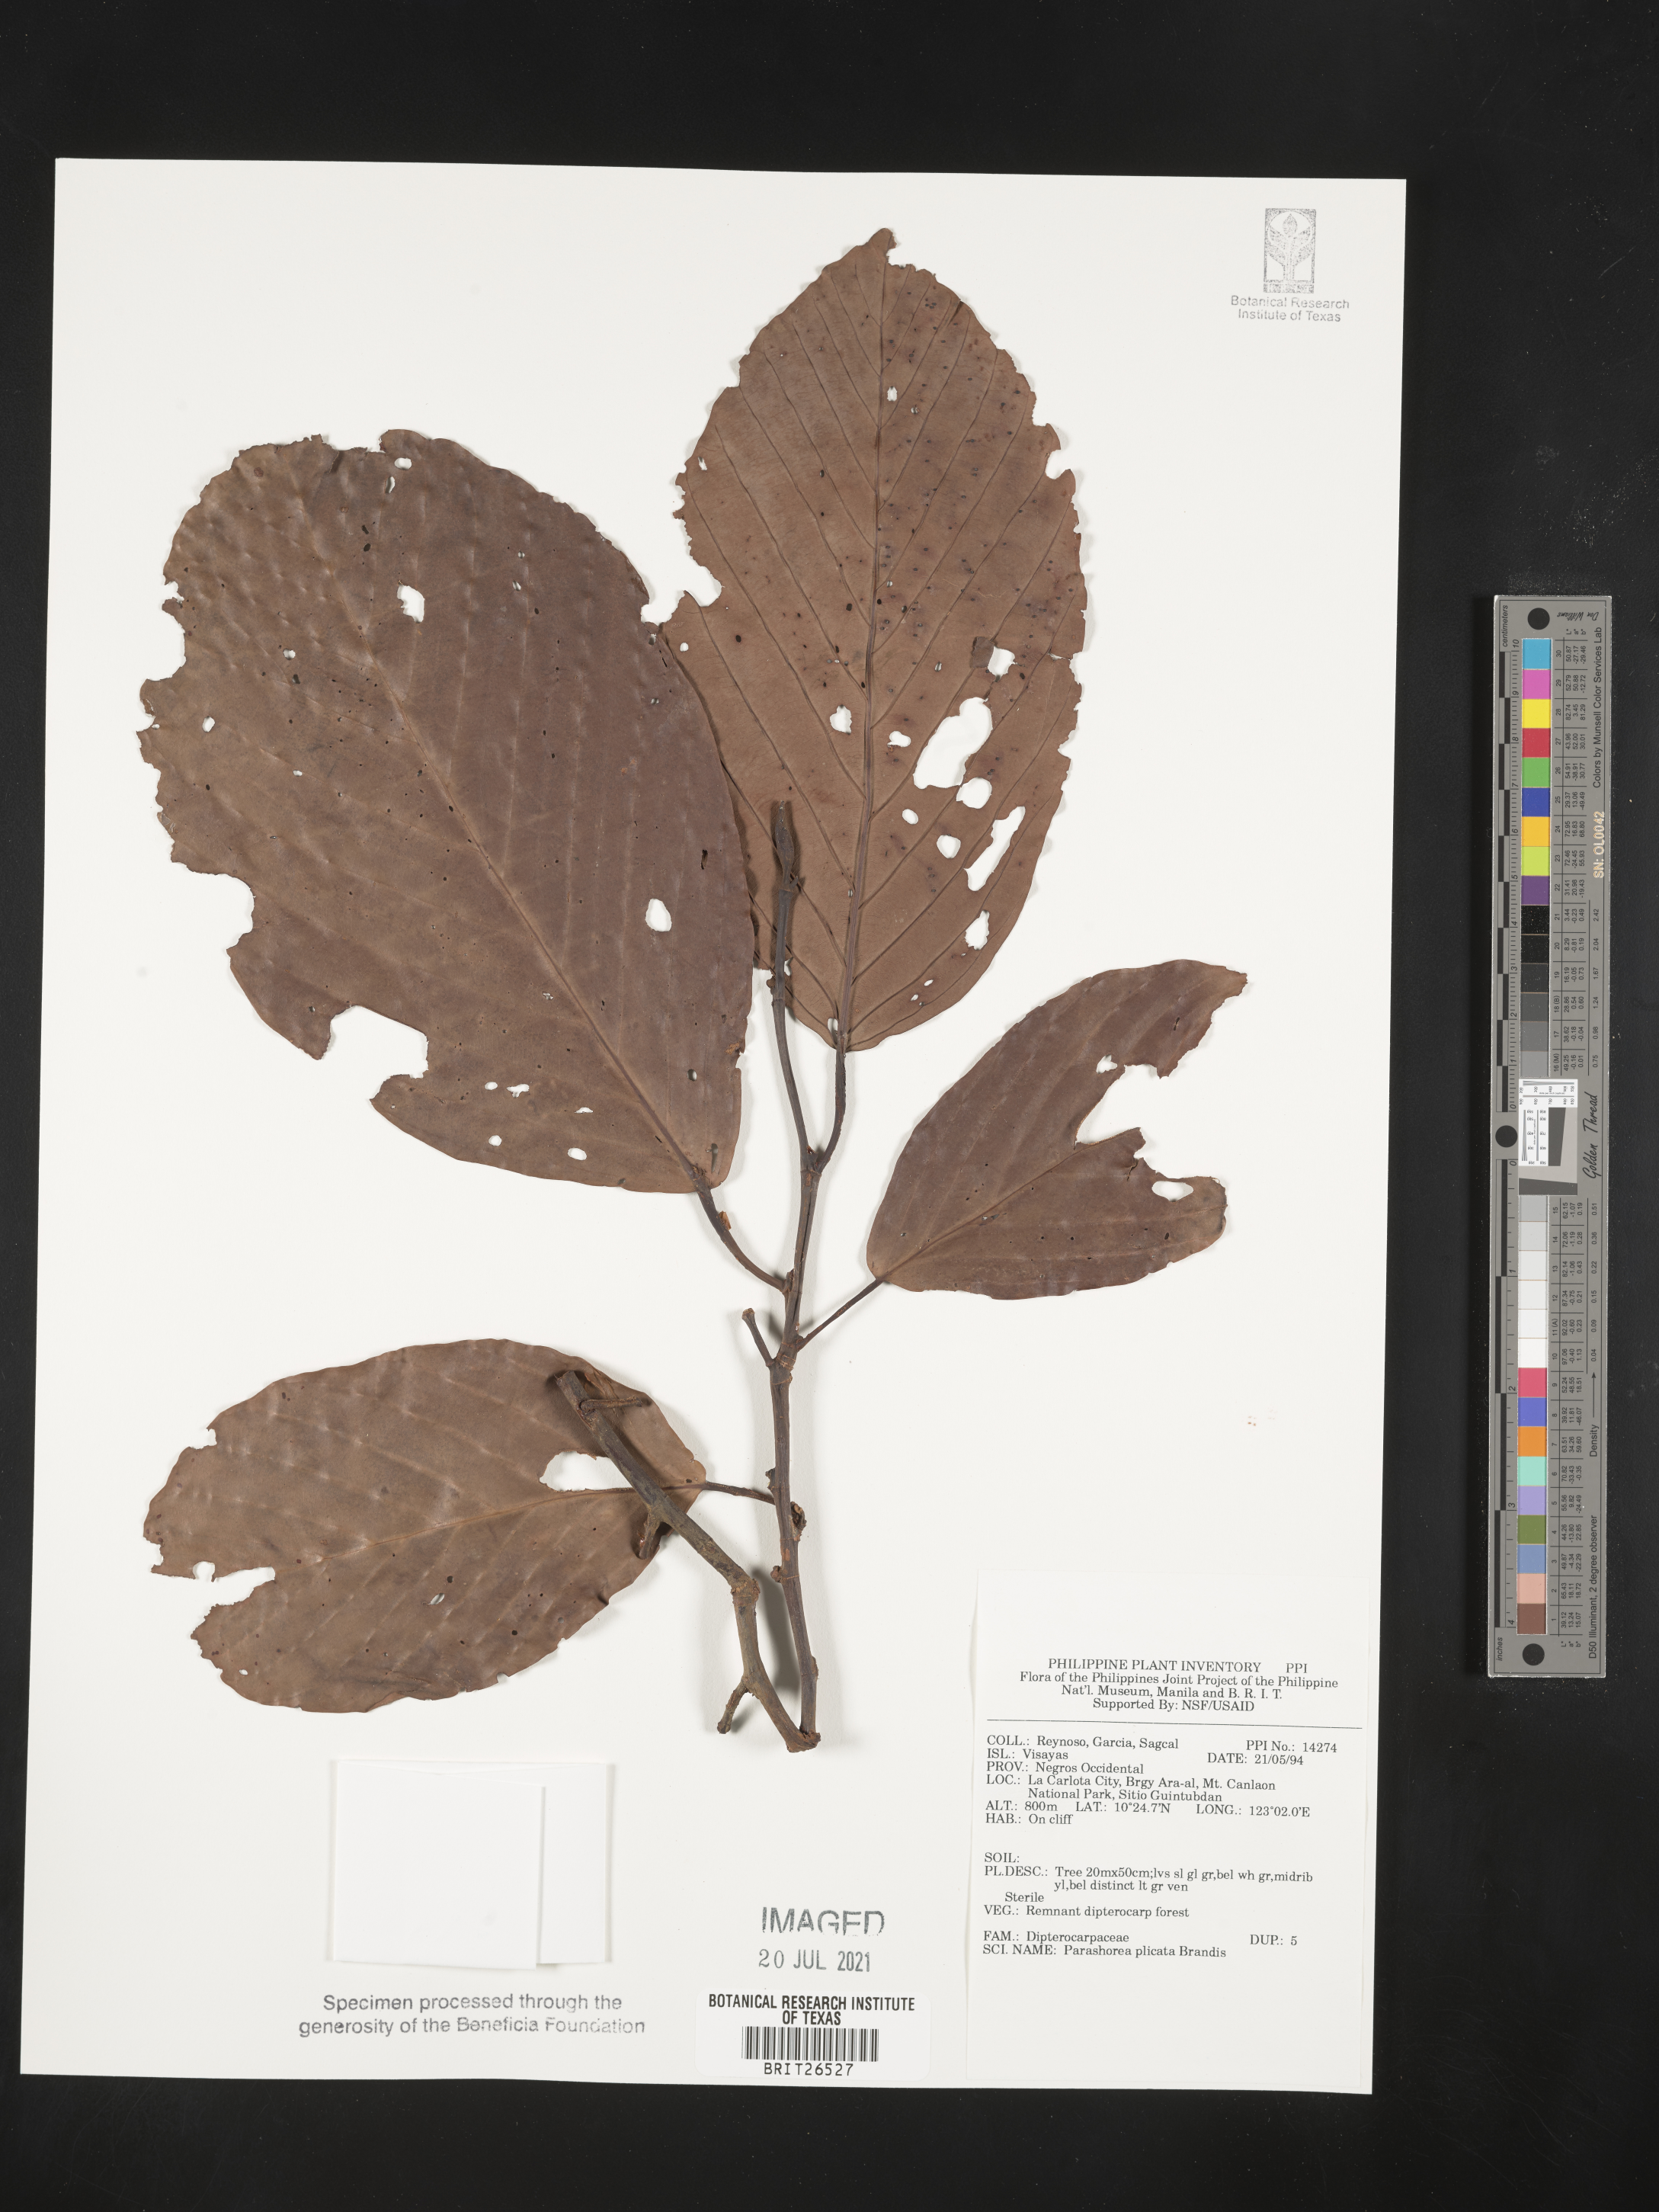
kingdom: Plantae
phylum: Tracheophyta
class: Magnoliopsida
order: Malvales
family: Dipterocarpaceae
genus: Parashorea
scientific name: Parashorea malaanonan
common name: White lauan
